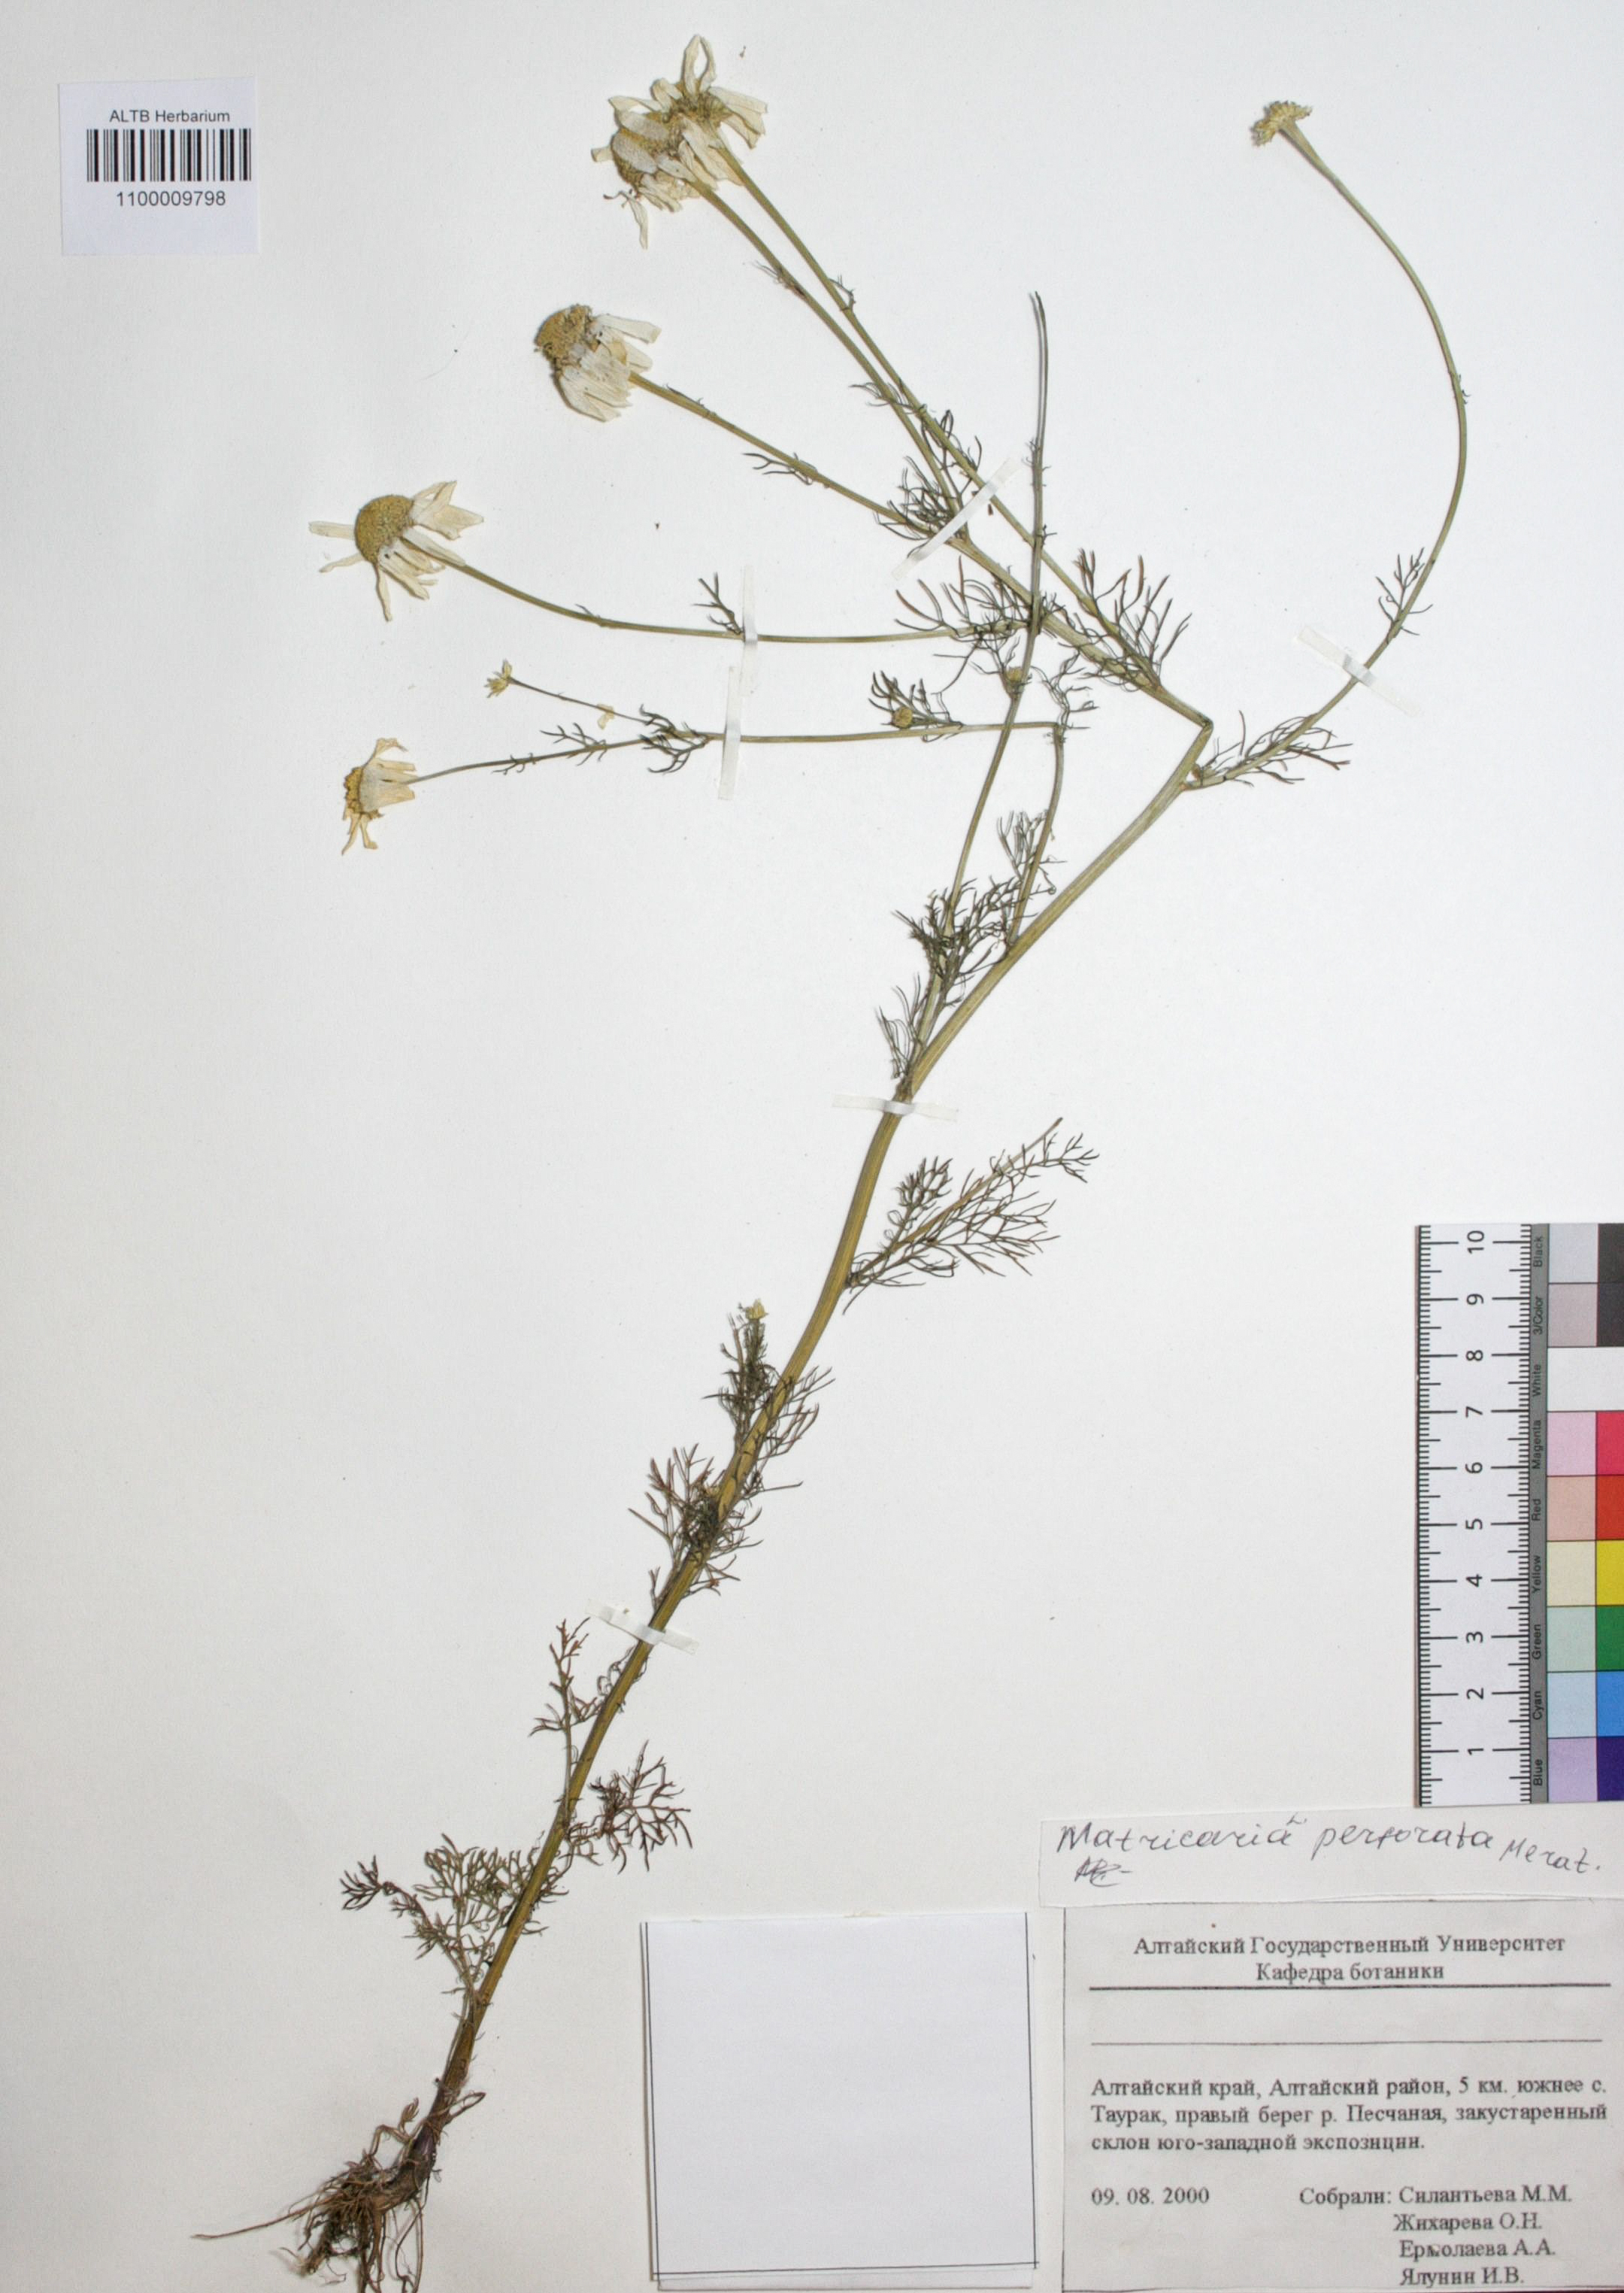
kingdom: Plantae
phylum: Tracheophyta
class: Magnoliopsida
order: Asterales
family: Asteraceae
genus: Tripleurospermum
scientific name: Tripleurospermum inodorum
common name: Scentless mayweed
